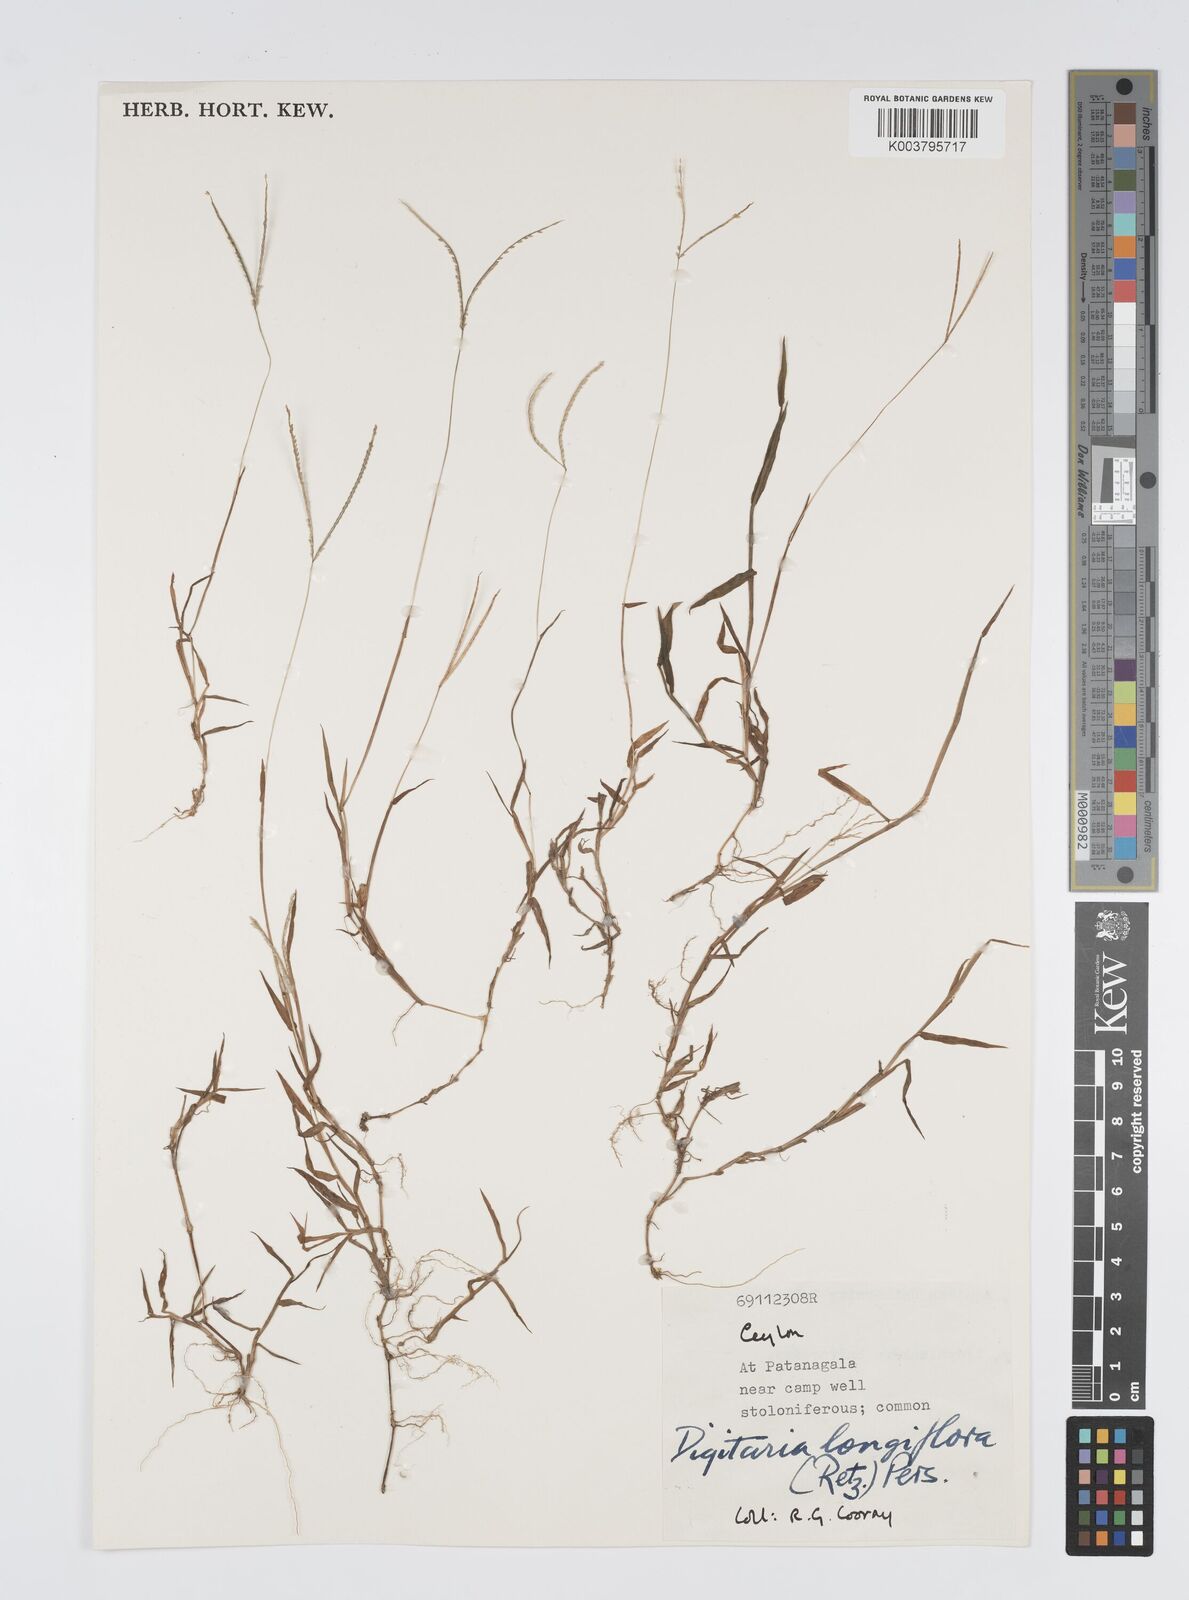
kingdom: Plantae
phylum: Tracheophyta
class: Liliopsida
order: Poales
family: Poaceae
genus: Digitaria
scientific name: Digitaria longiflora
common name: Wire crabgrass
